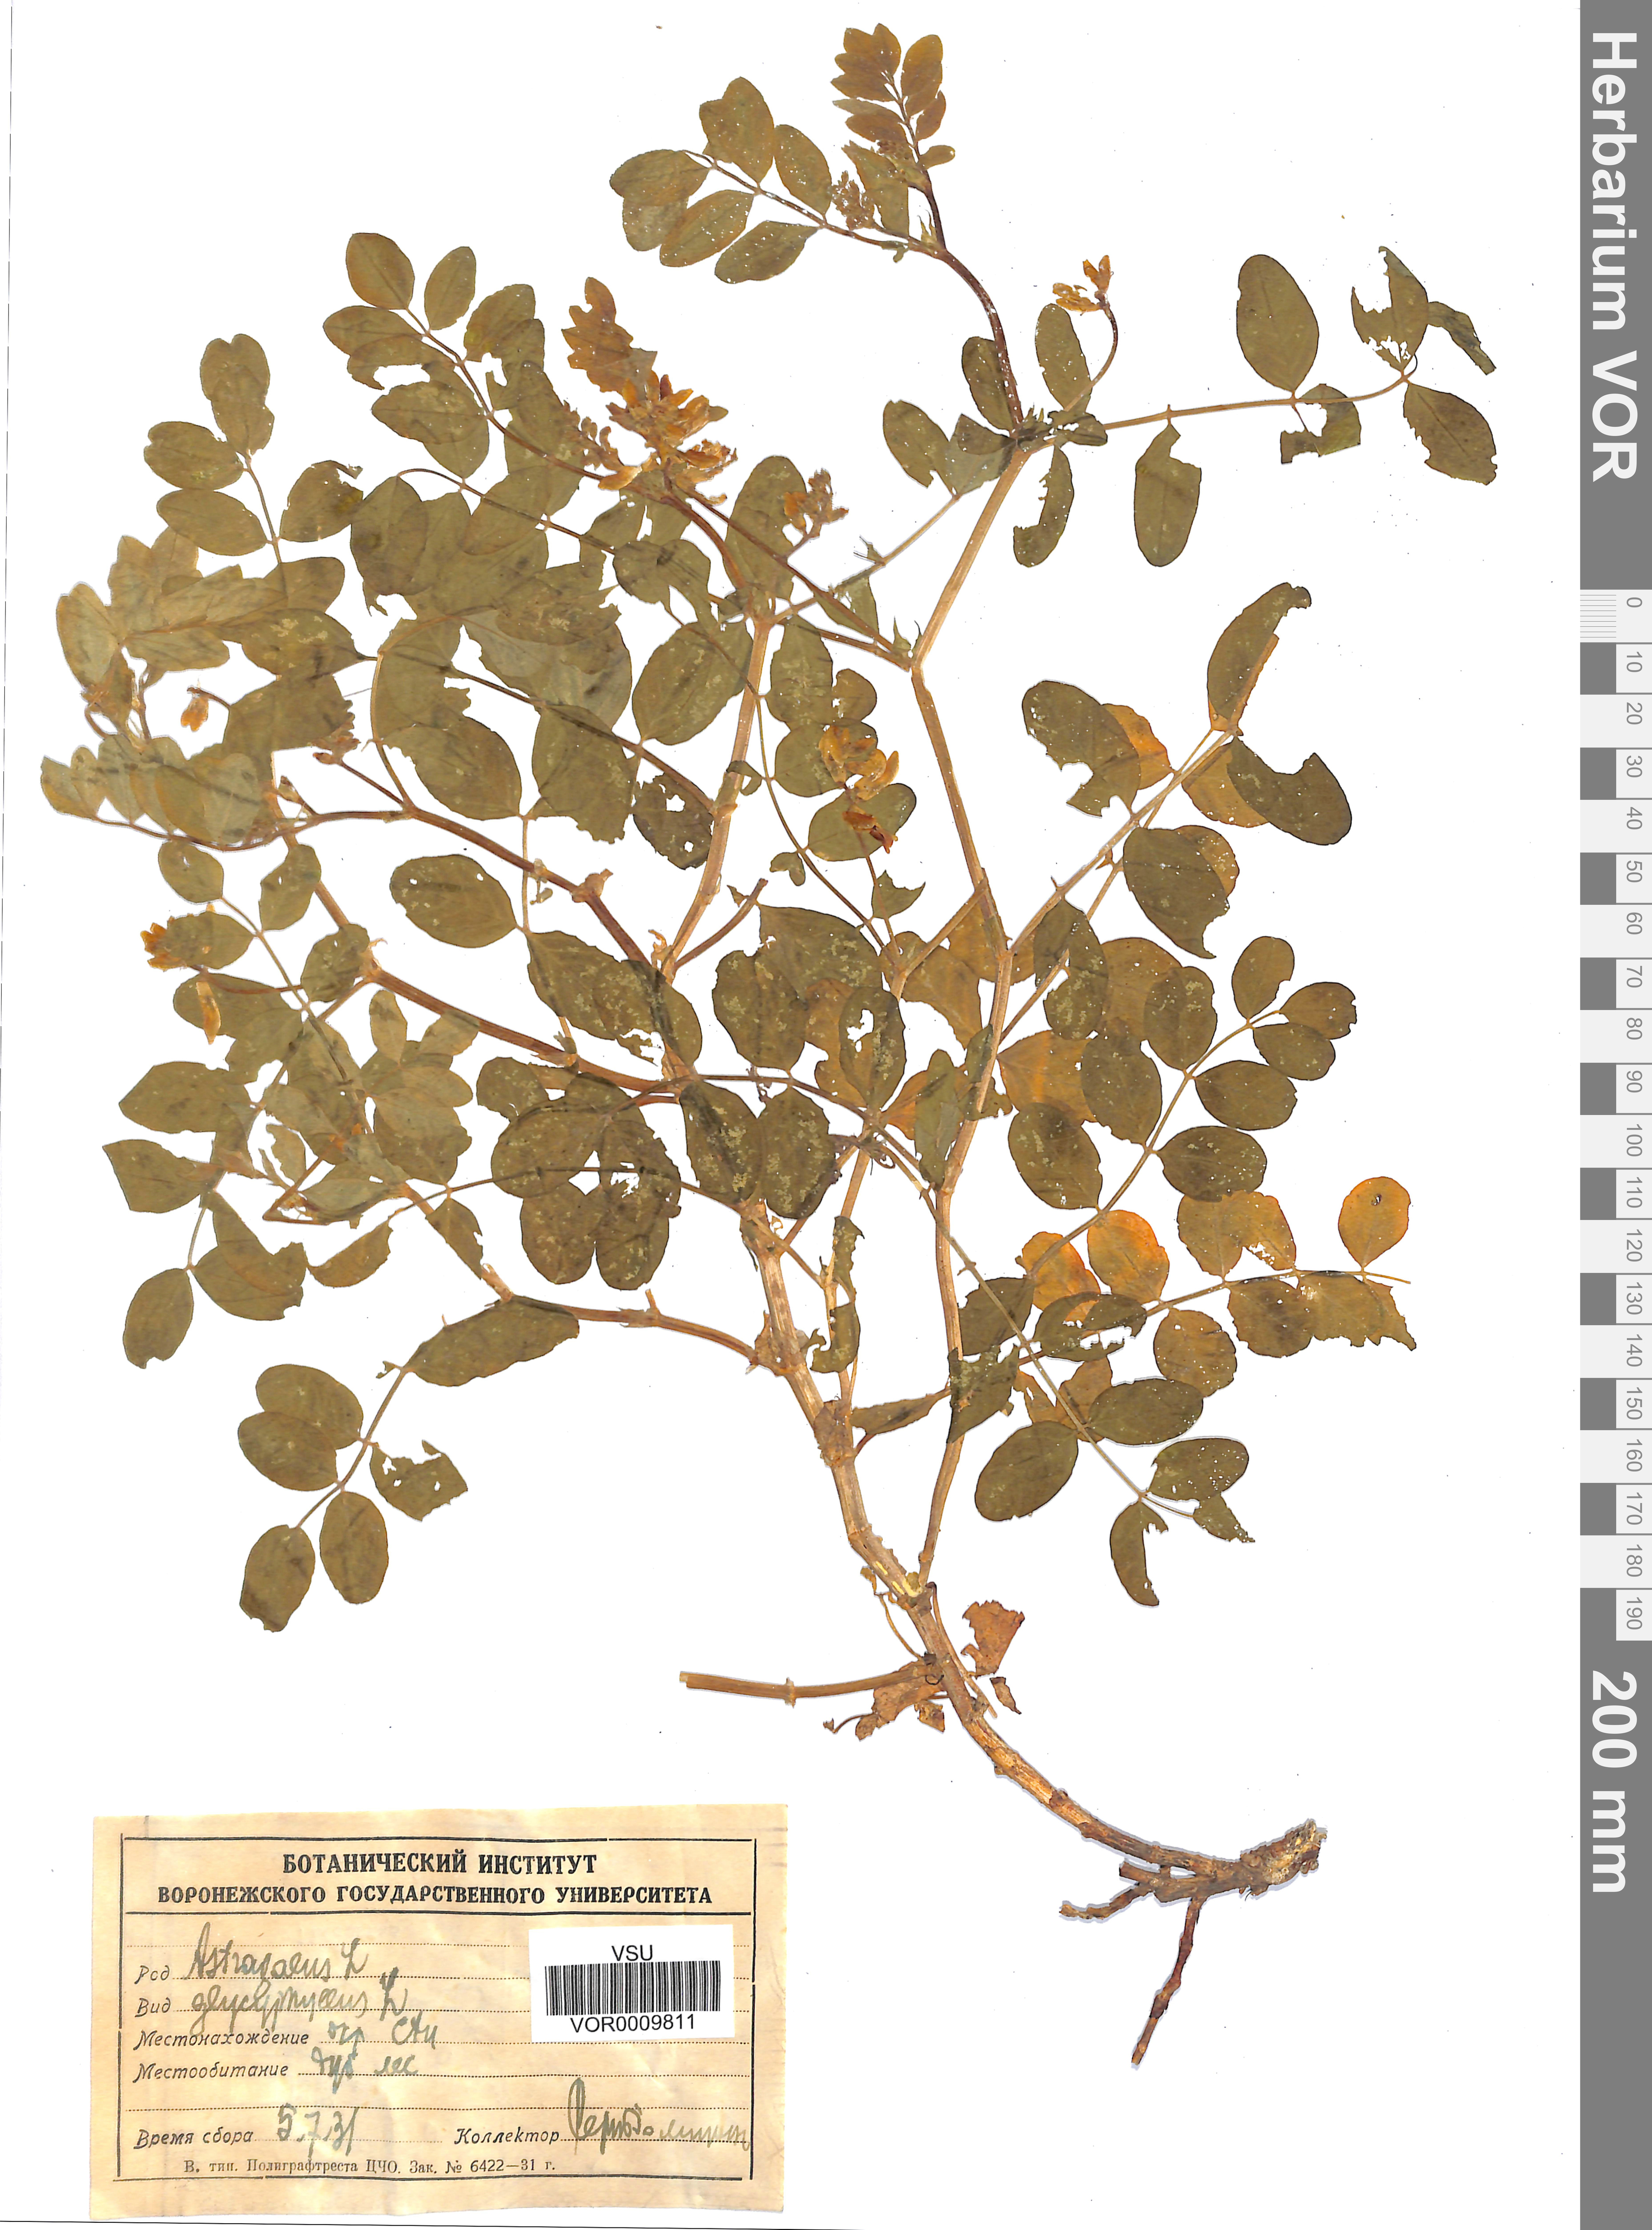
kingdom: Plantae
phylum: Tracheophyta
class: Magnoliopsida
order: Fabales
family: Fabaceae
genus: Astragalus
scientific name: Astragalus glycyphyllos
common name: Wild liquorice
